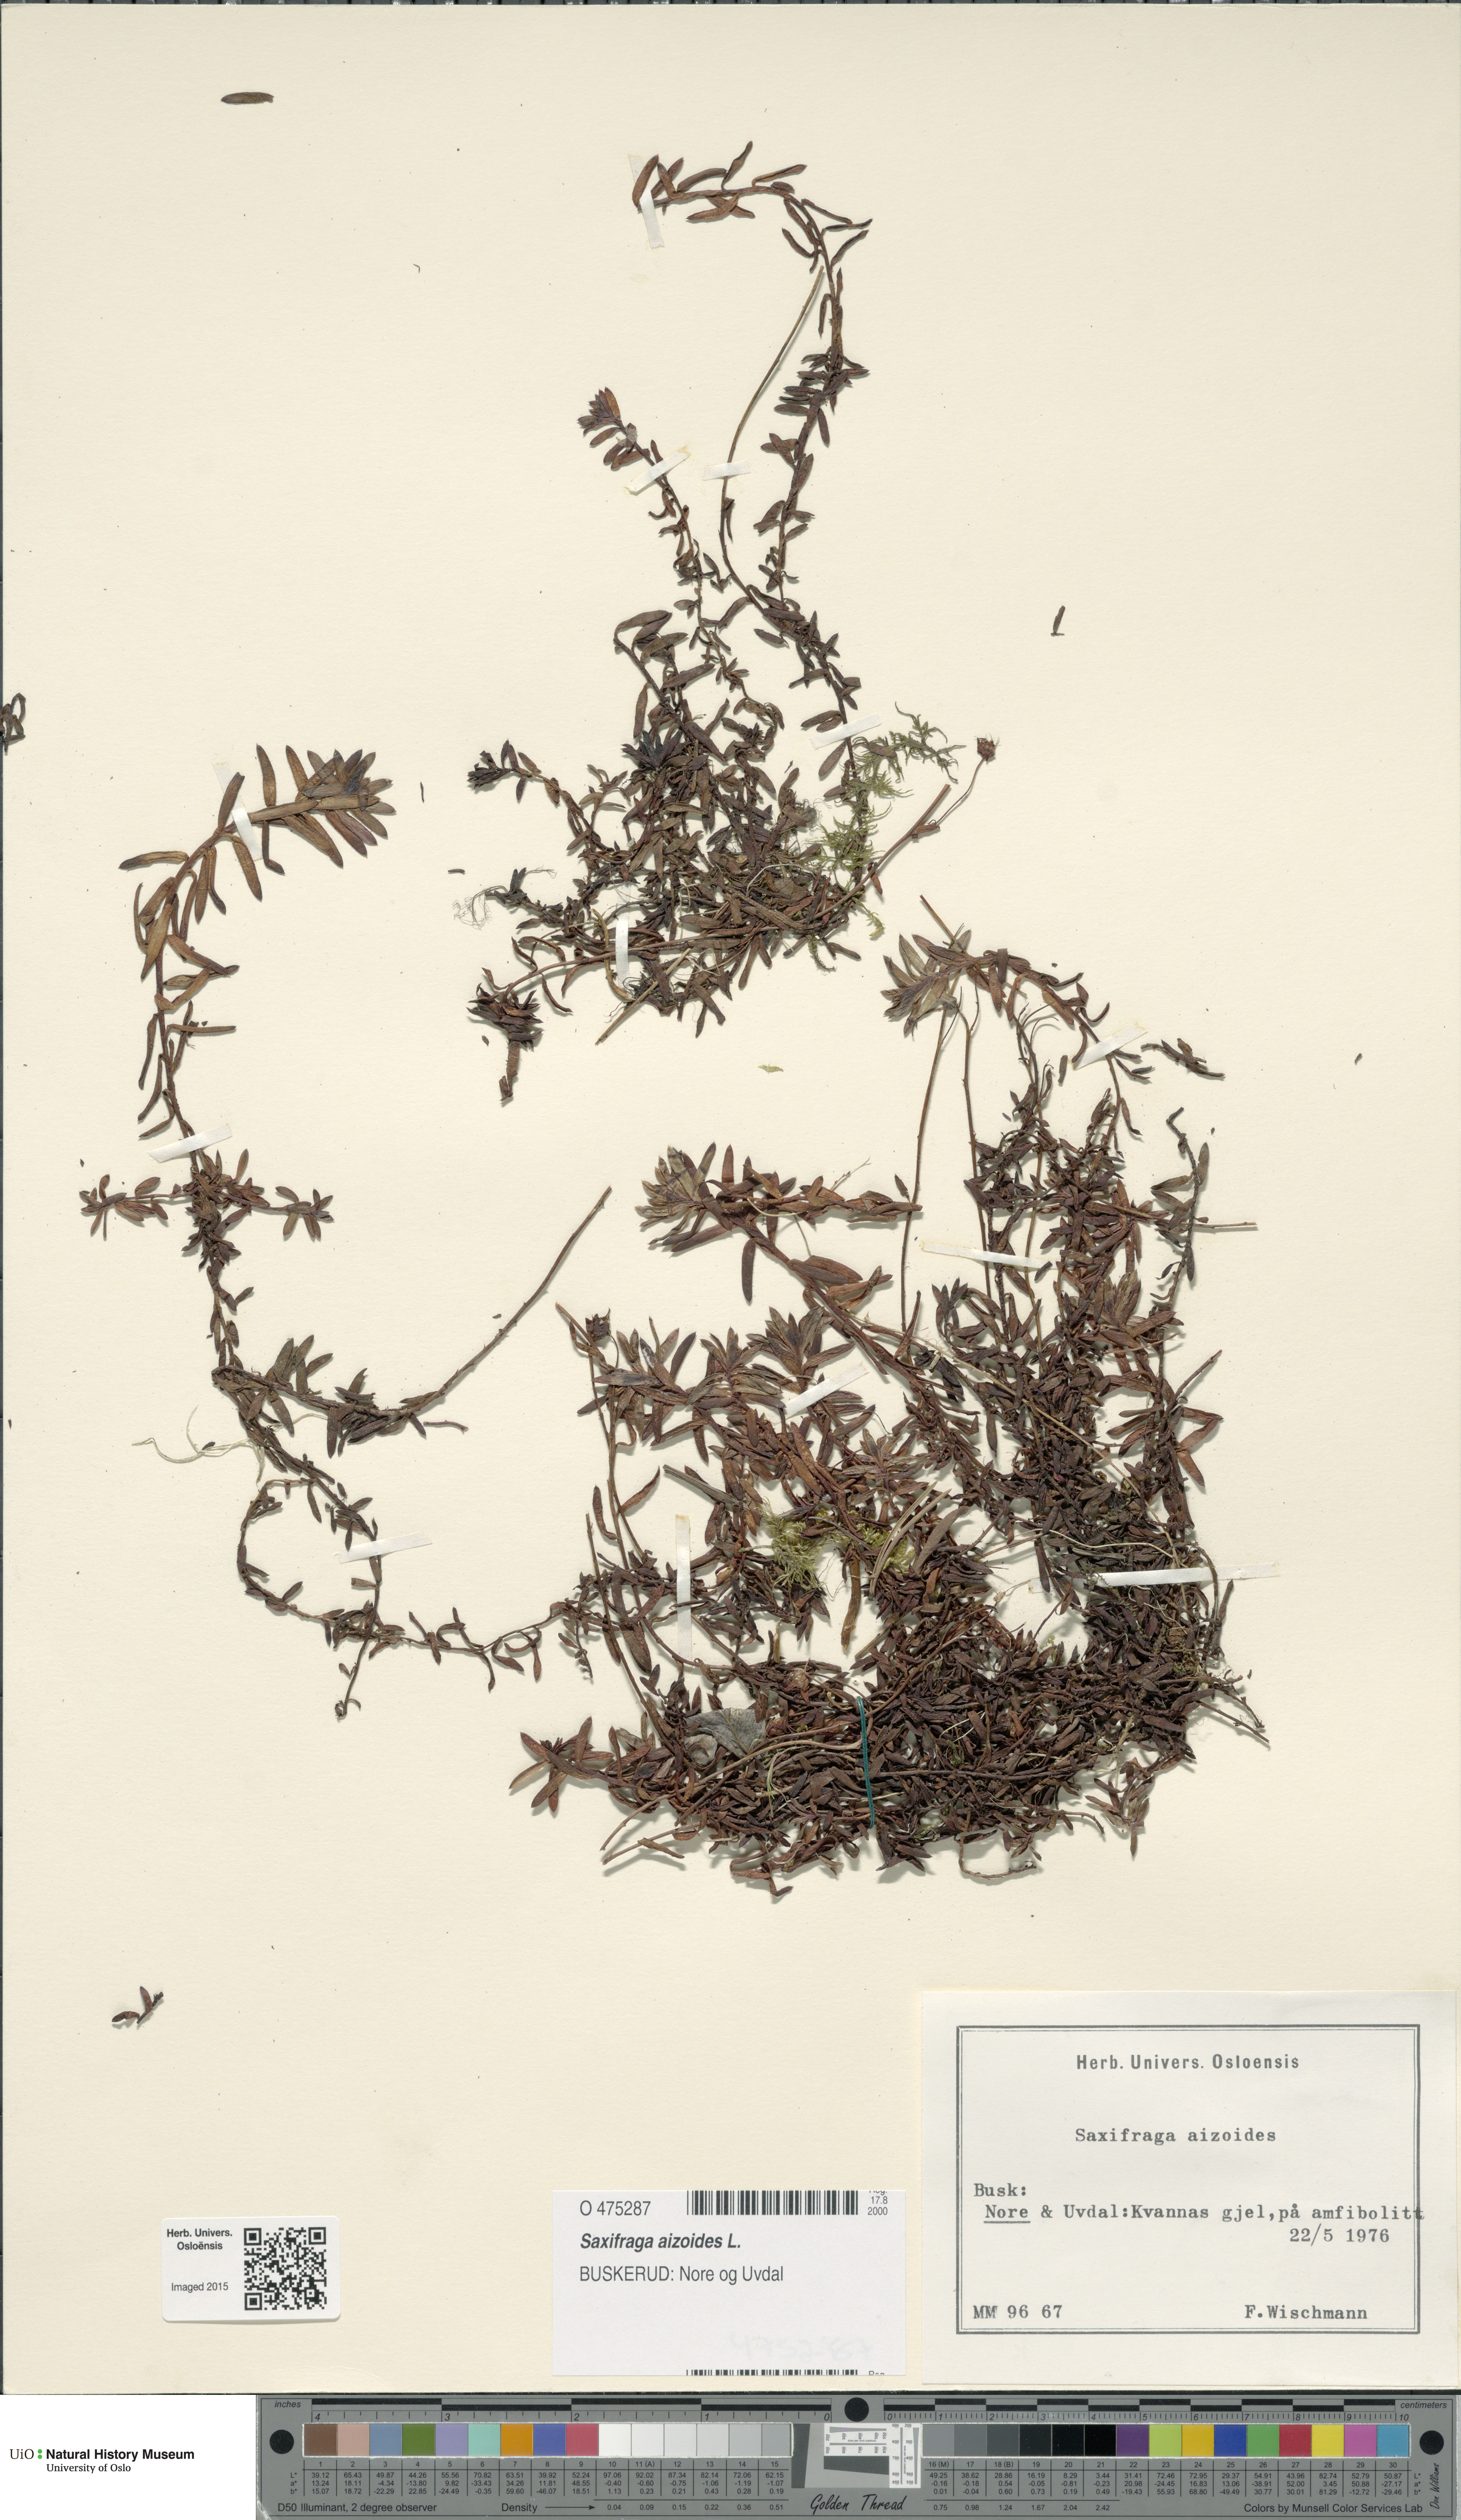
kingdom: Plantae
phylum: Tracheophyta
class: Magnoliopsida
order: Saxifragales
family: Saxifragaceae
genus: Saxifraga
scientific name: Saxifraga aizoides
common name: Yellow mountain saxifrage
